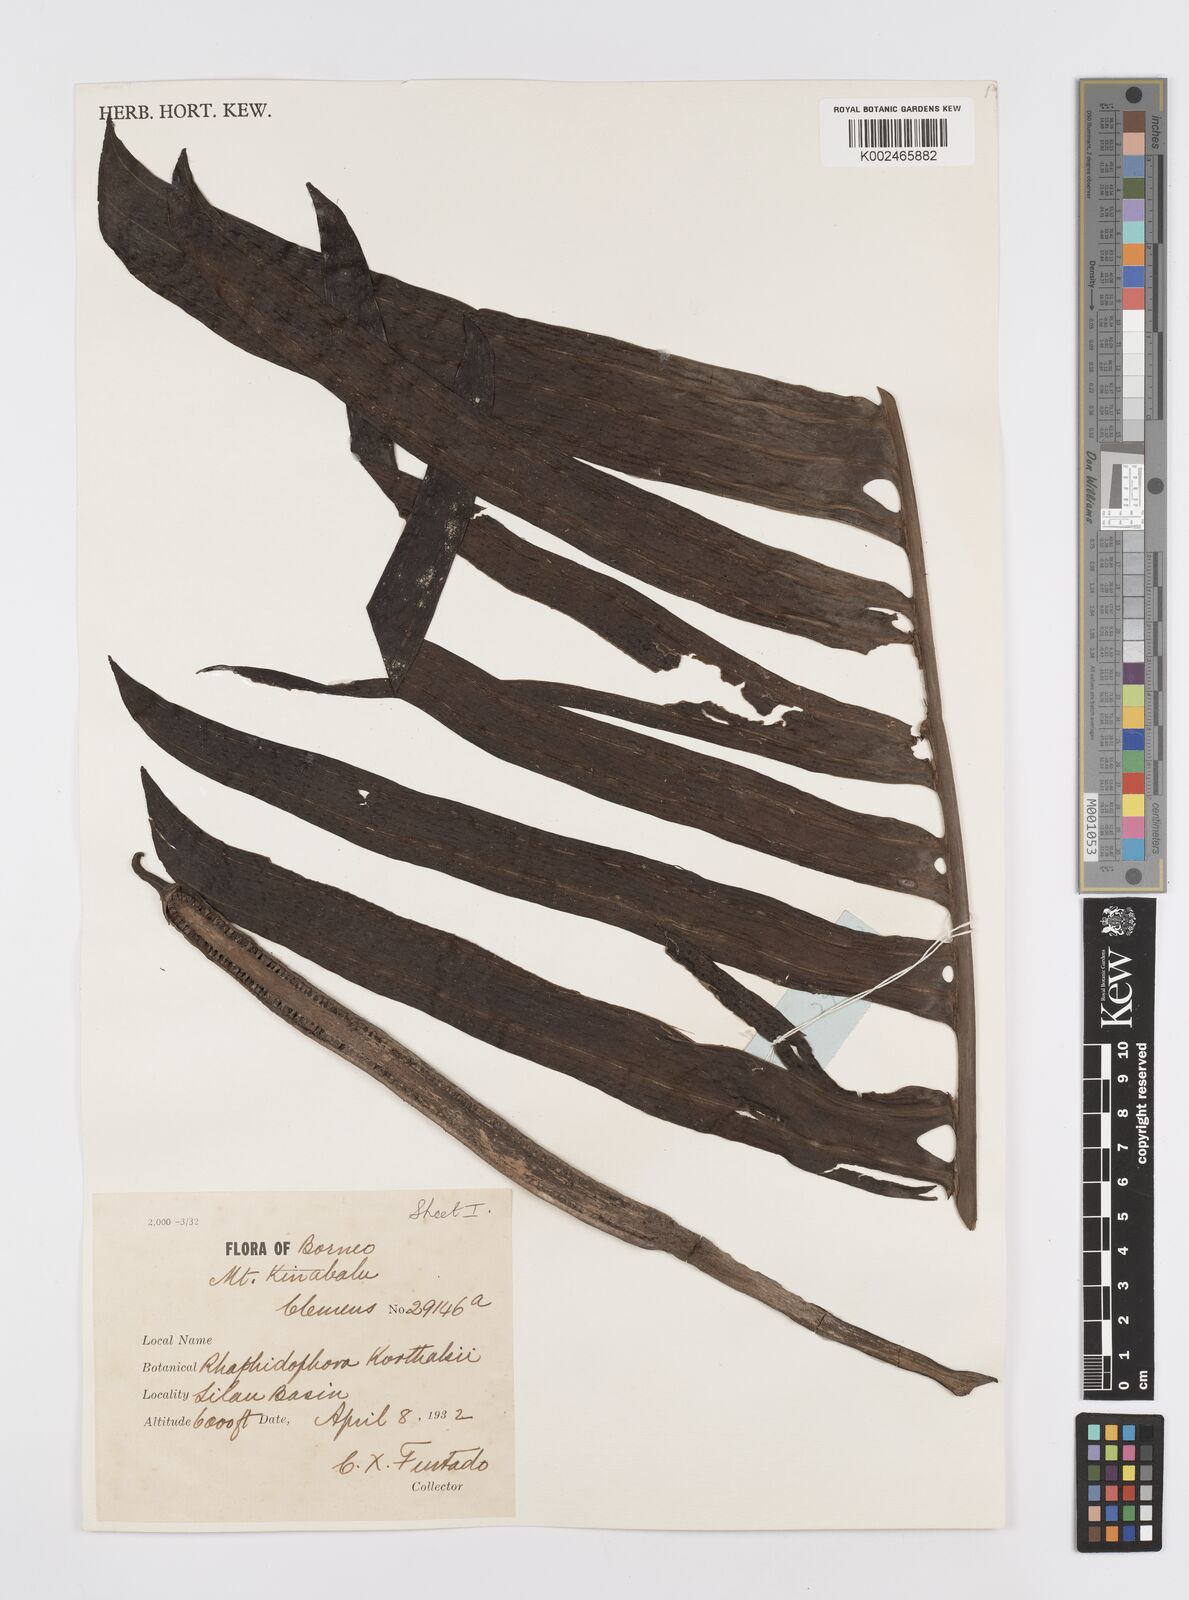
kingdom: Plantae
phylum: Tracheophyta
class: Liliopsida
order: Alismatales
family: Araceae
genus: Rhaphidophora
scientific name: Rhaphidophora korthalsii
